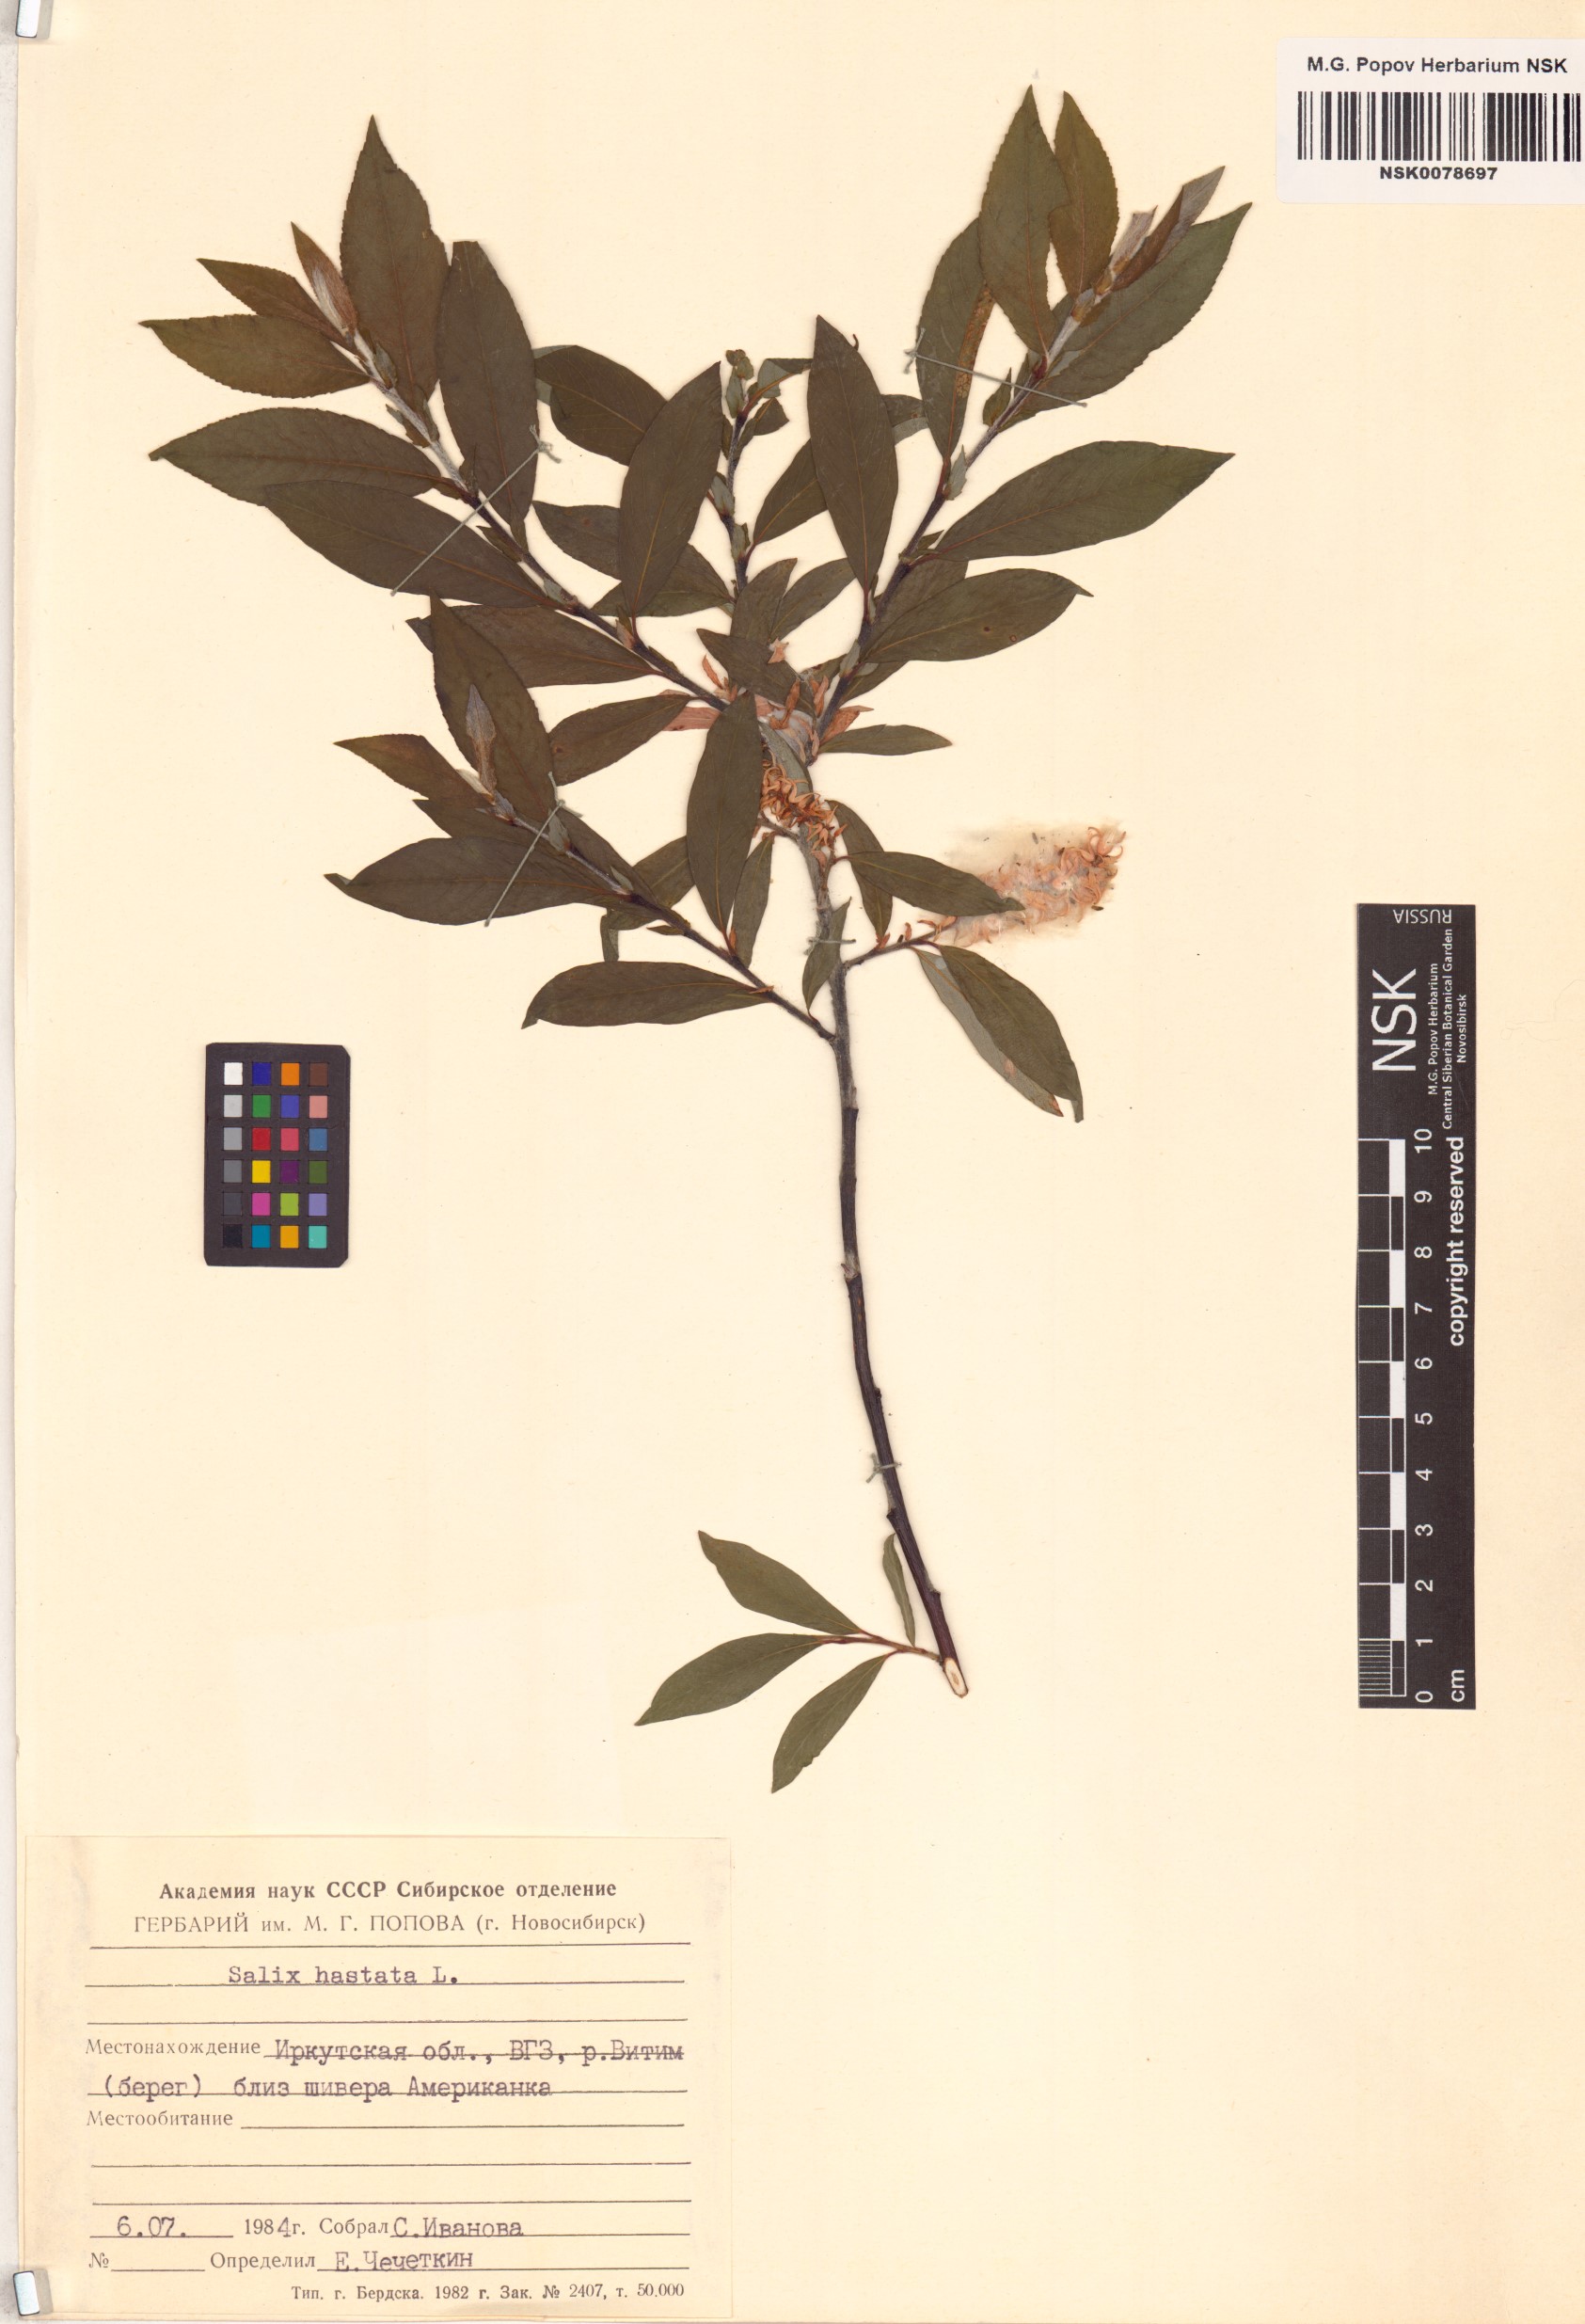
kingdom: Plantae
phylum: Tracheophyta
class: Magnoliopsida
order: Malpighiales
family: Salicaceae
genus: Salix
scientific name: Salix hastata
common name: Halberd willow
